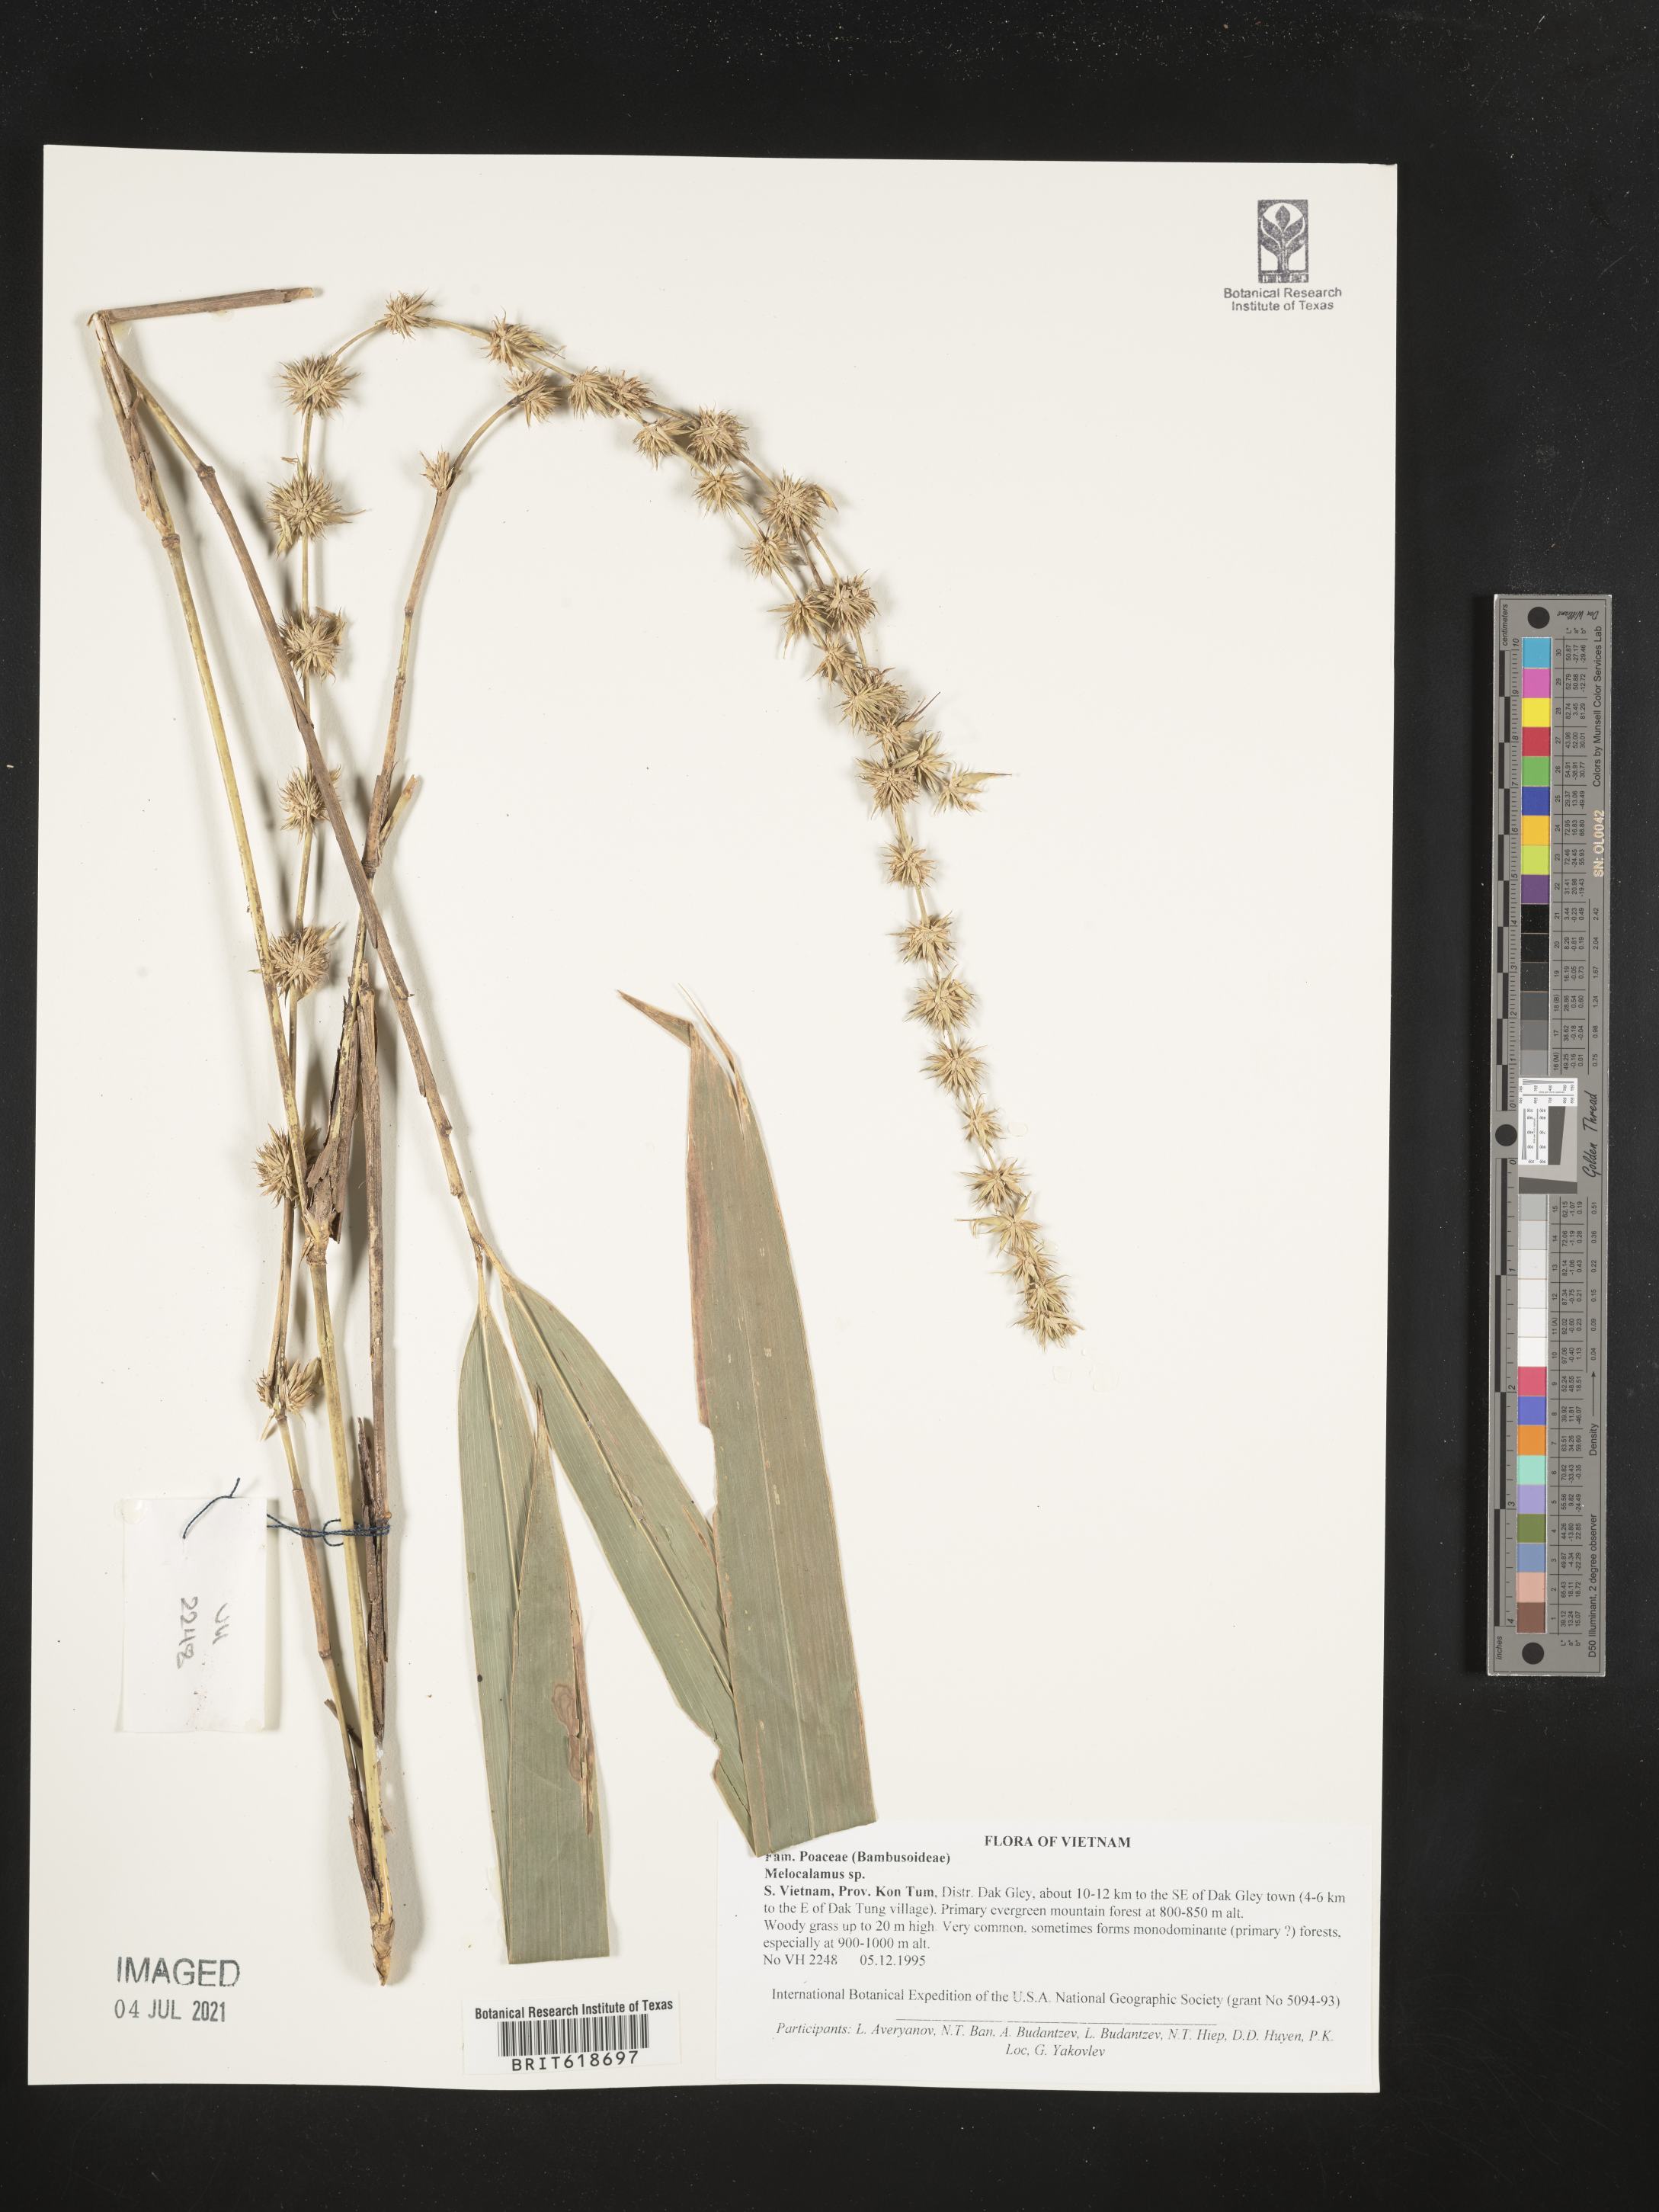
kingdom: Plantae
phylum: Tracheophyta
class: Liliopsida
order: Poales
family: Poaceae
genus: Melocalamus
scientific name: Melocalamus
